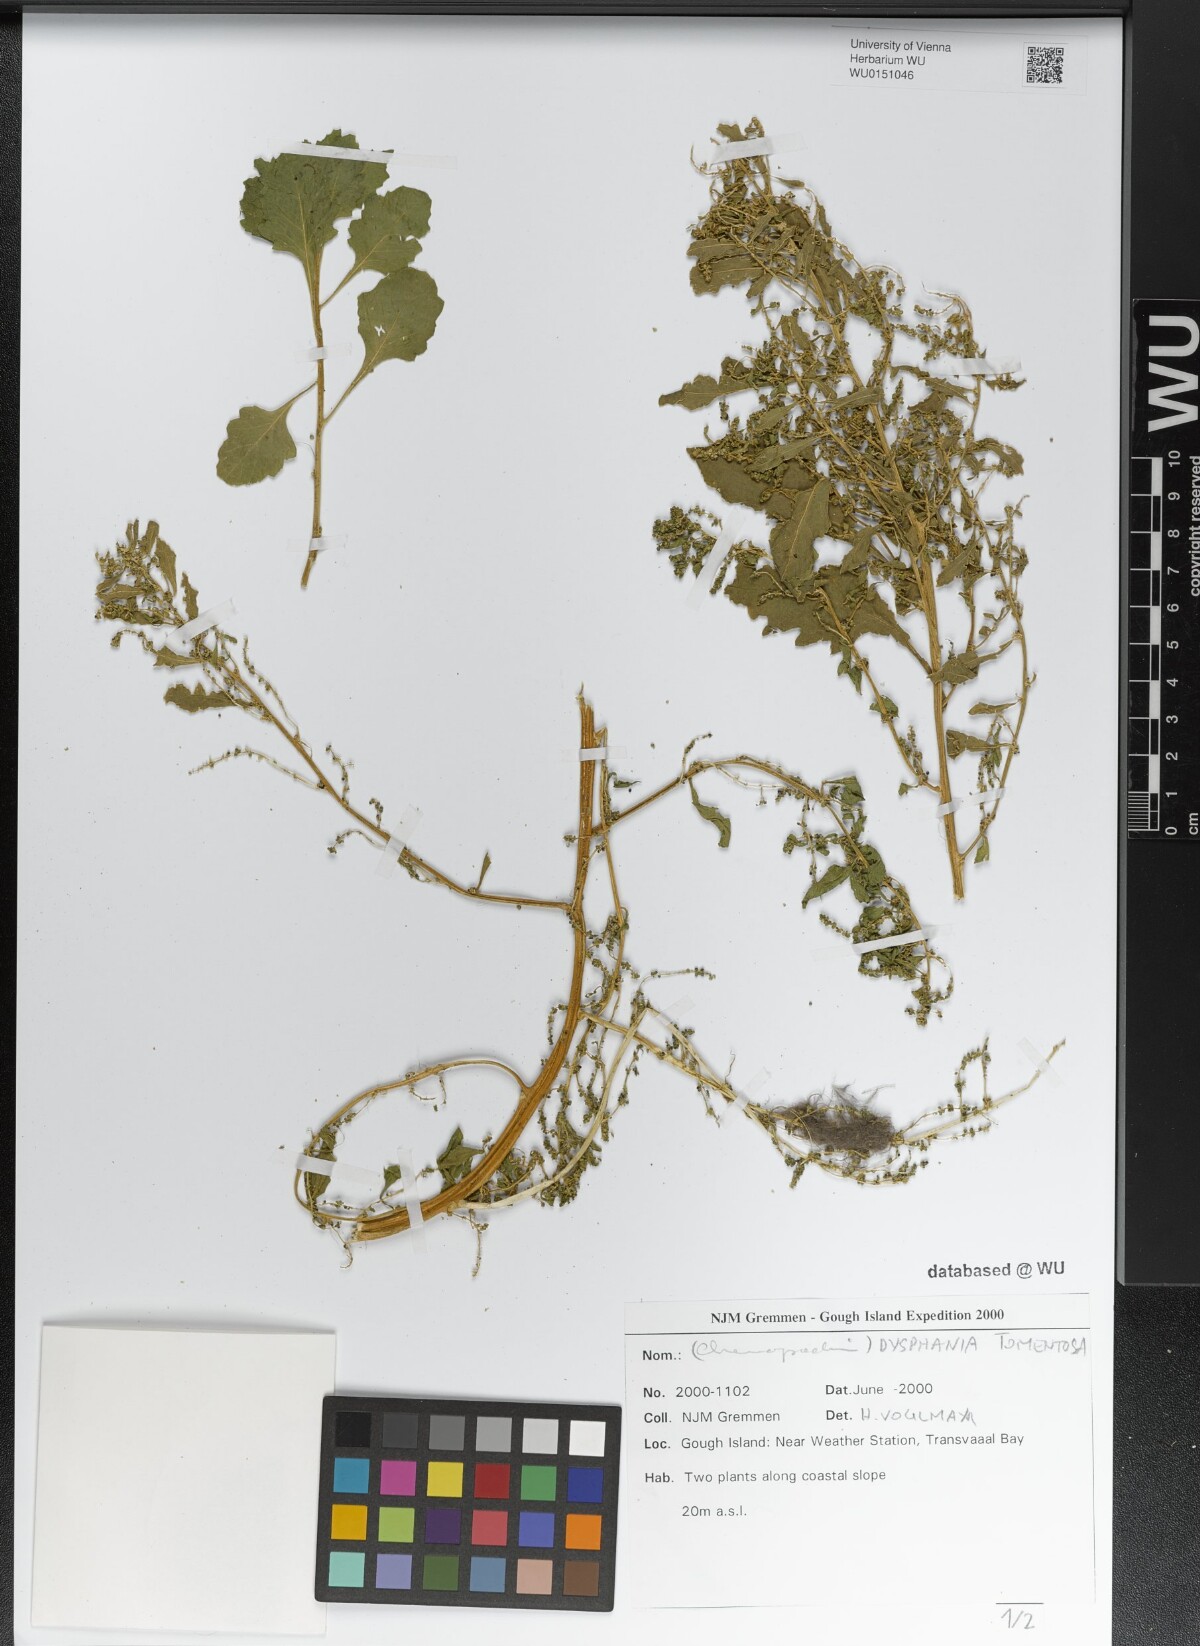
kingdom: Plantae
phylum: Tracheophyta
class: Magnoliopsida
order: Caryophyllales
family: Amaranthaceae
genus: Dysphania
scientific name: Dysphania tomentosa
